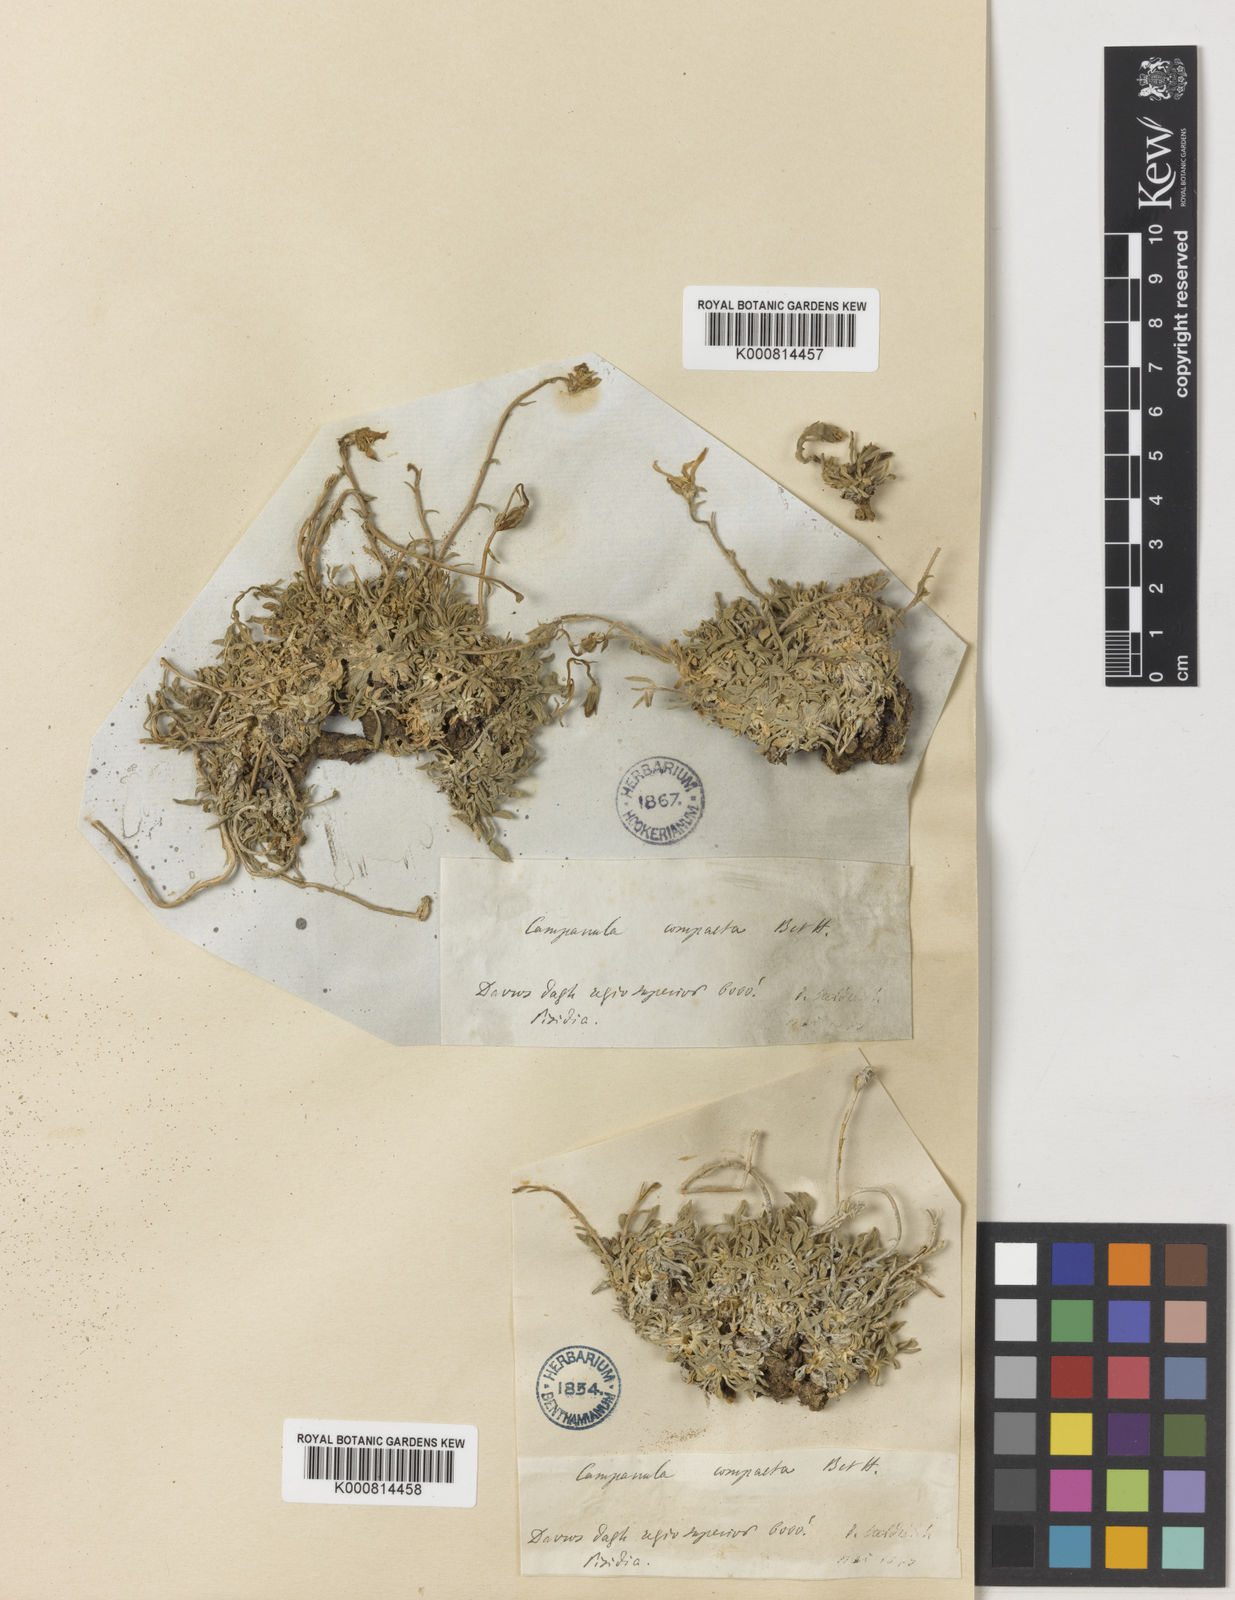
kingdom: Plantae
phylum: Tracheophyta
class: Magnoliopsida
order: Asterales
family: Campanulaceae
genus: Asyneuma
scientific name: Asyneuma compactum
